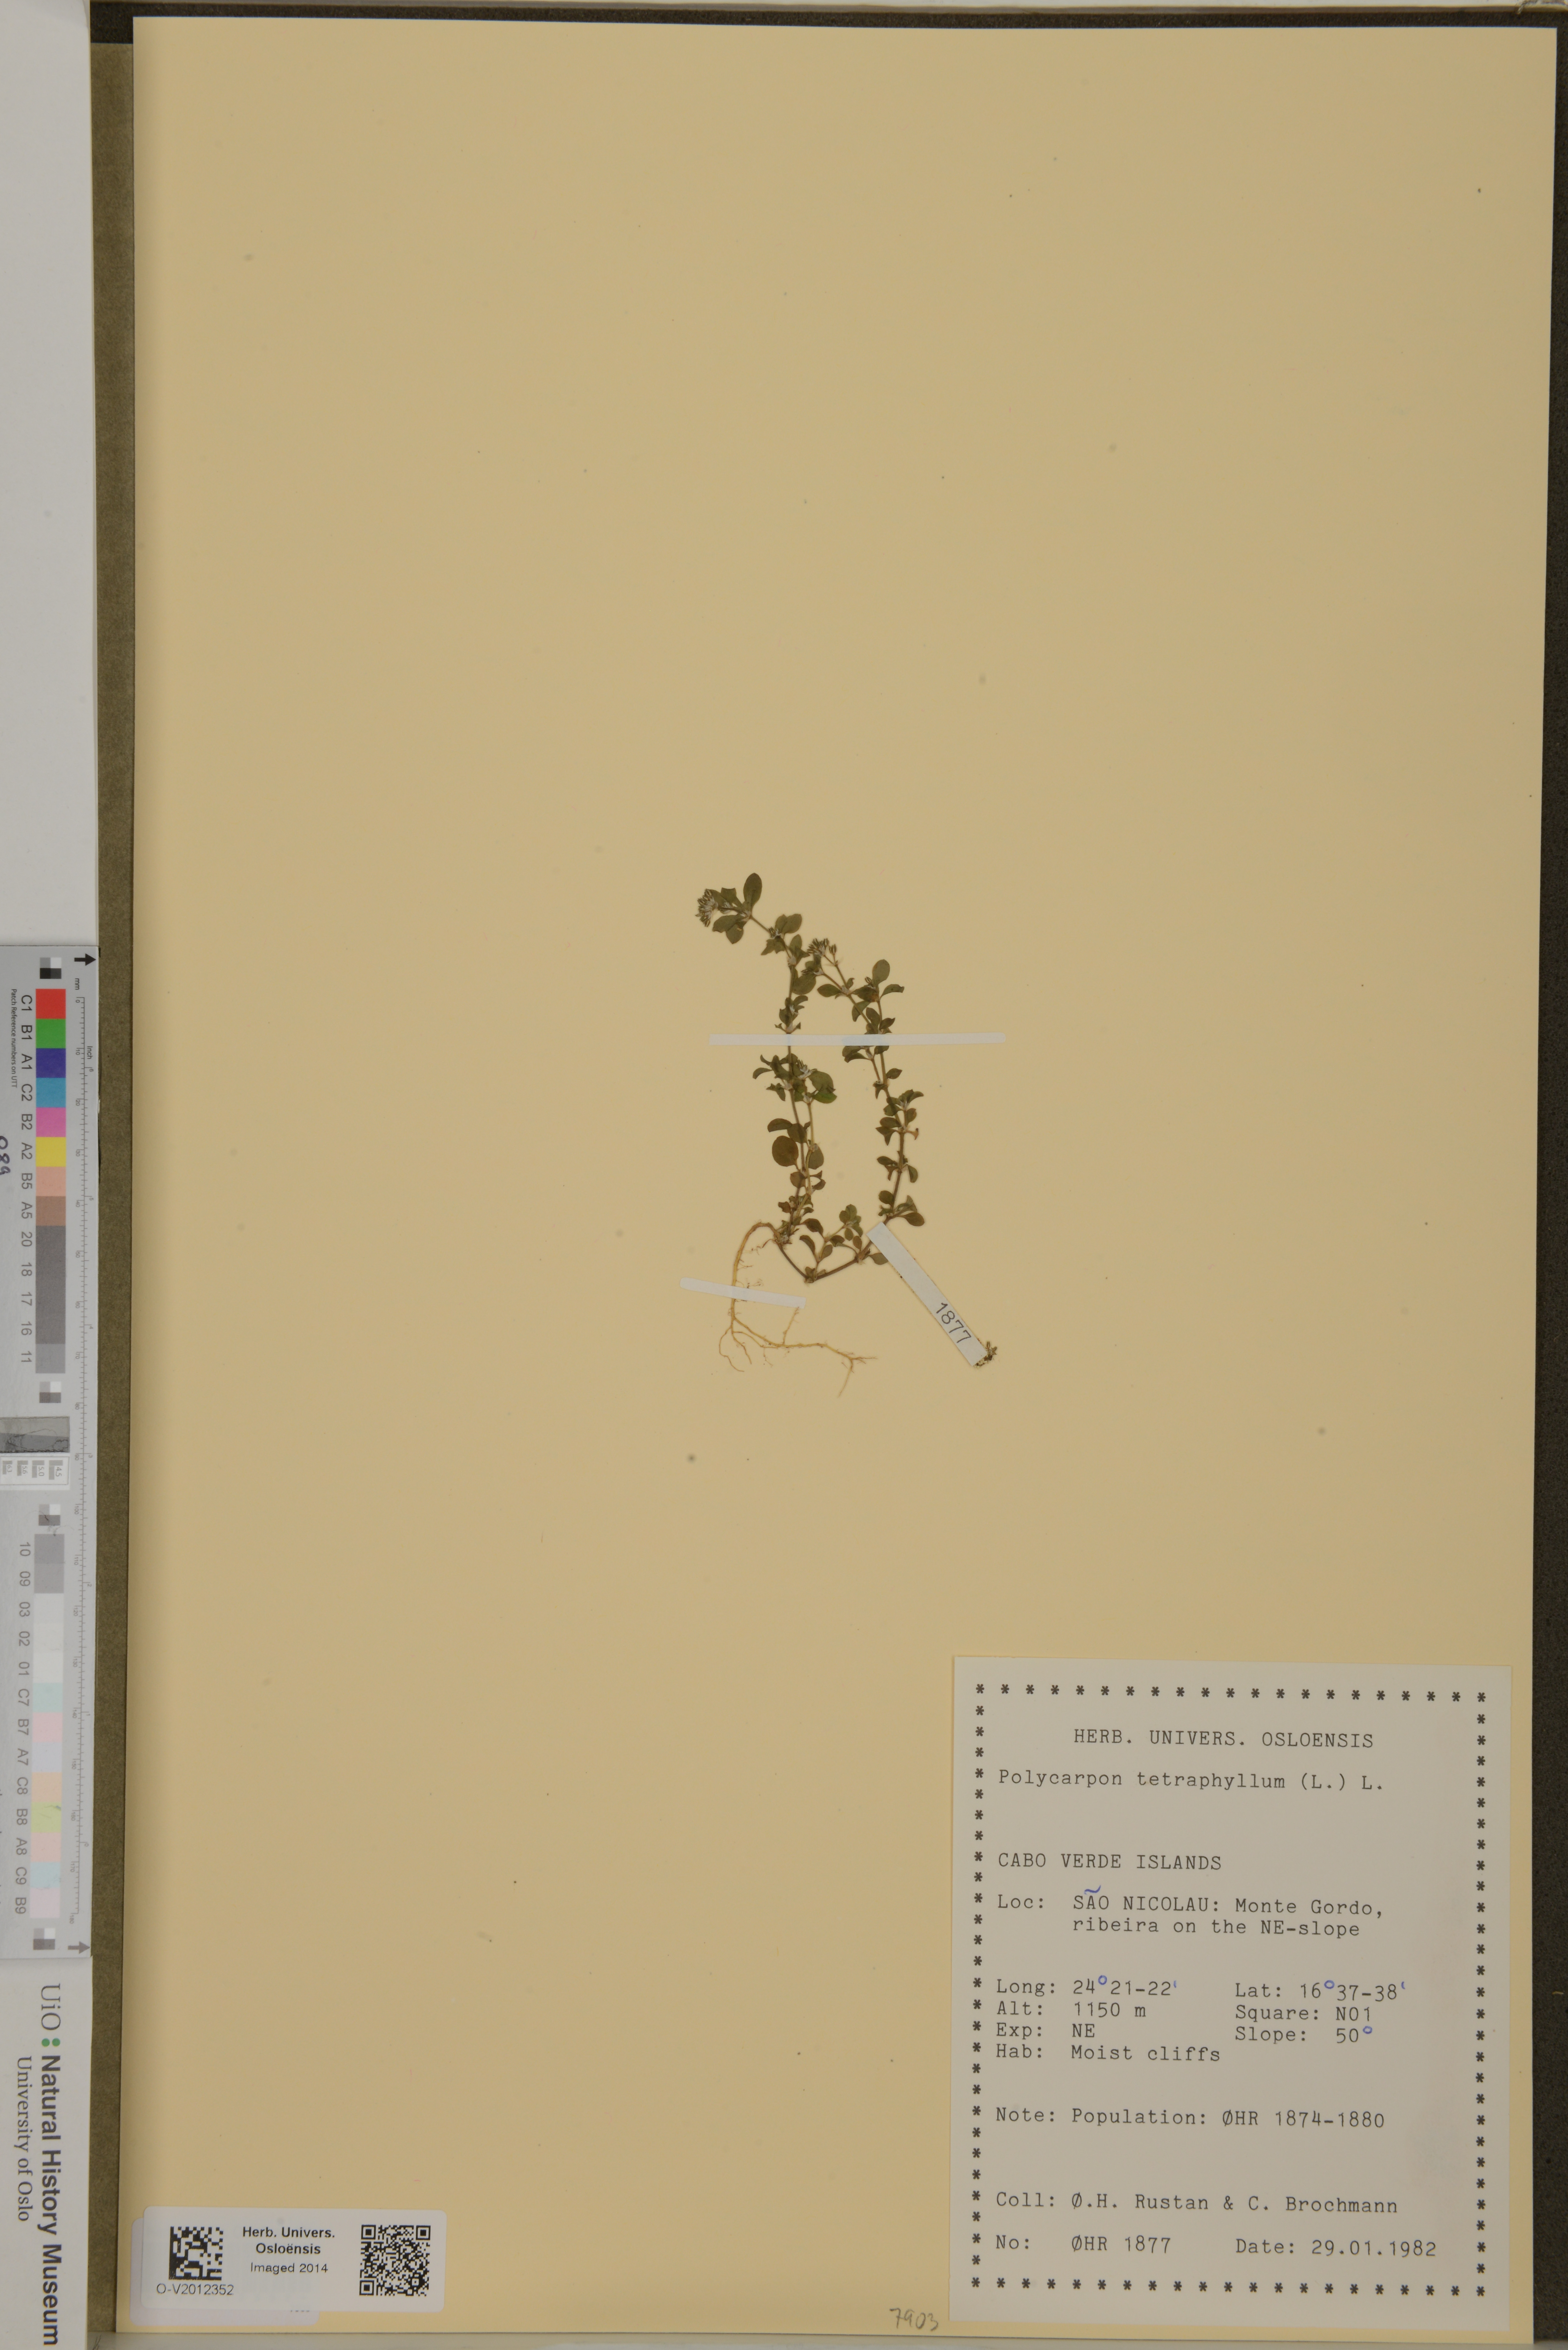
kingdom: Plantae
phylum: Tracheophyta
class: Magnoliopsida
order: Caryophyllales
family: Caryophyllaceae
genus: Polycarpon
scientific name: Polycarpon tetraphyllum
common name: Four-leaved all-seed
